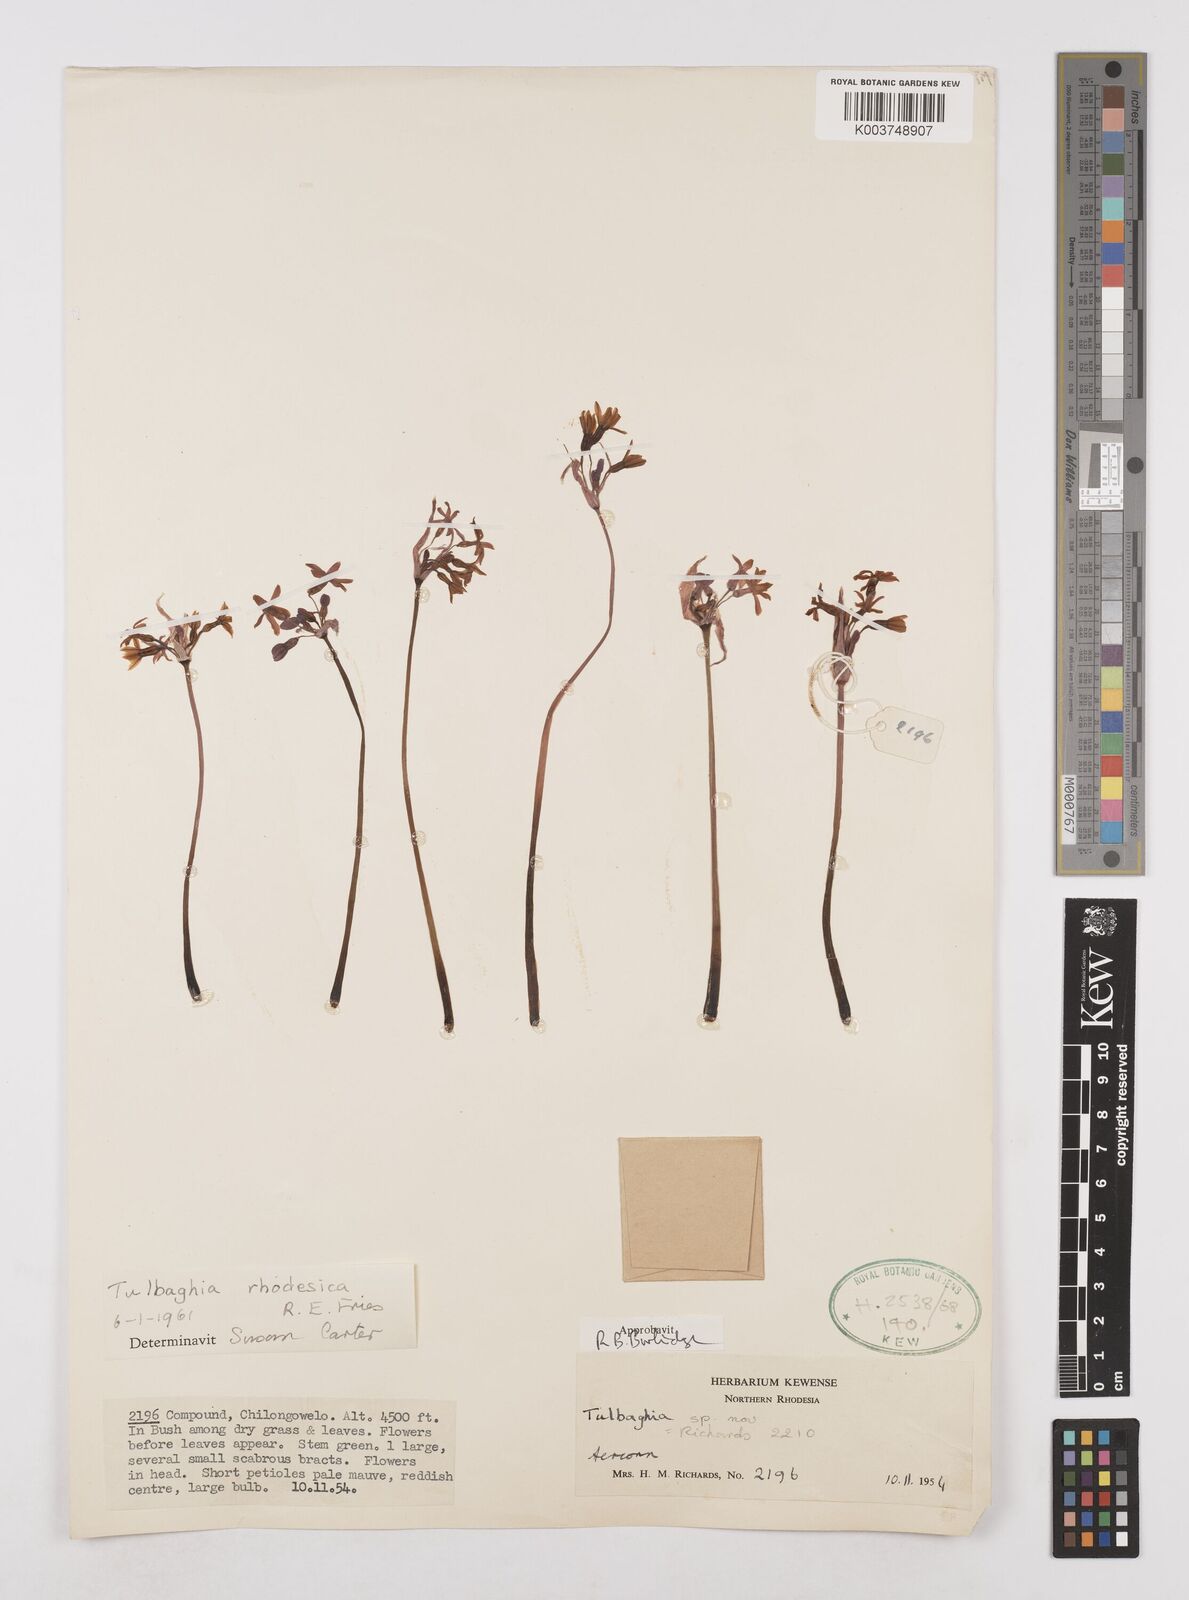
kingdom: Plantae
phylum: Tracheophyta
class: Liliopsida
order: Asparagales
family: Amaryllidaceae
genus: Tulbaghia
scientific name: Tulbaghia rhodesica
